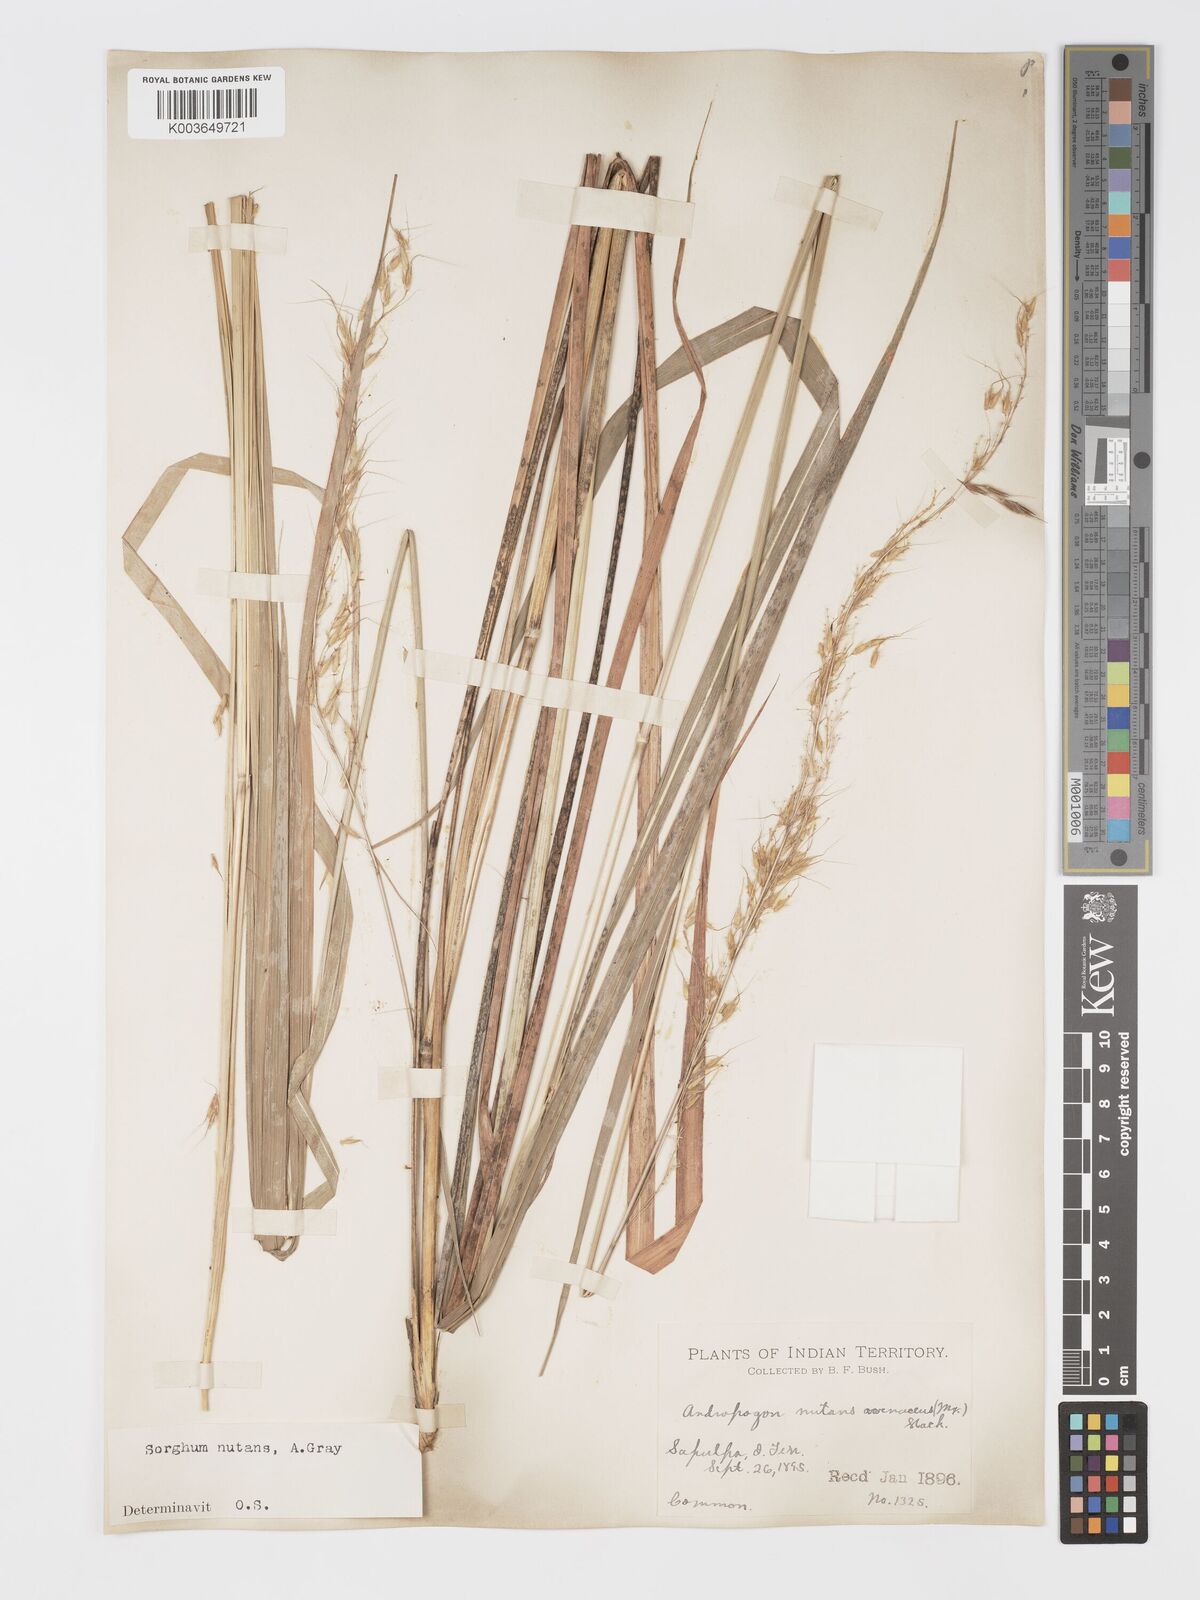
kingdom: Plantae
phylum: Tracheophyta
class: Liliopsida
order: Poales
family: Poaceae
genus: Sorghastrum
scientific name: Sorghastrum nutans
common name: Indian grass
